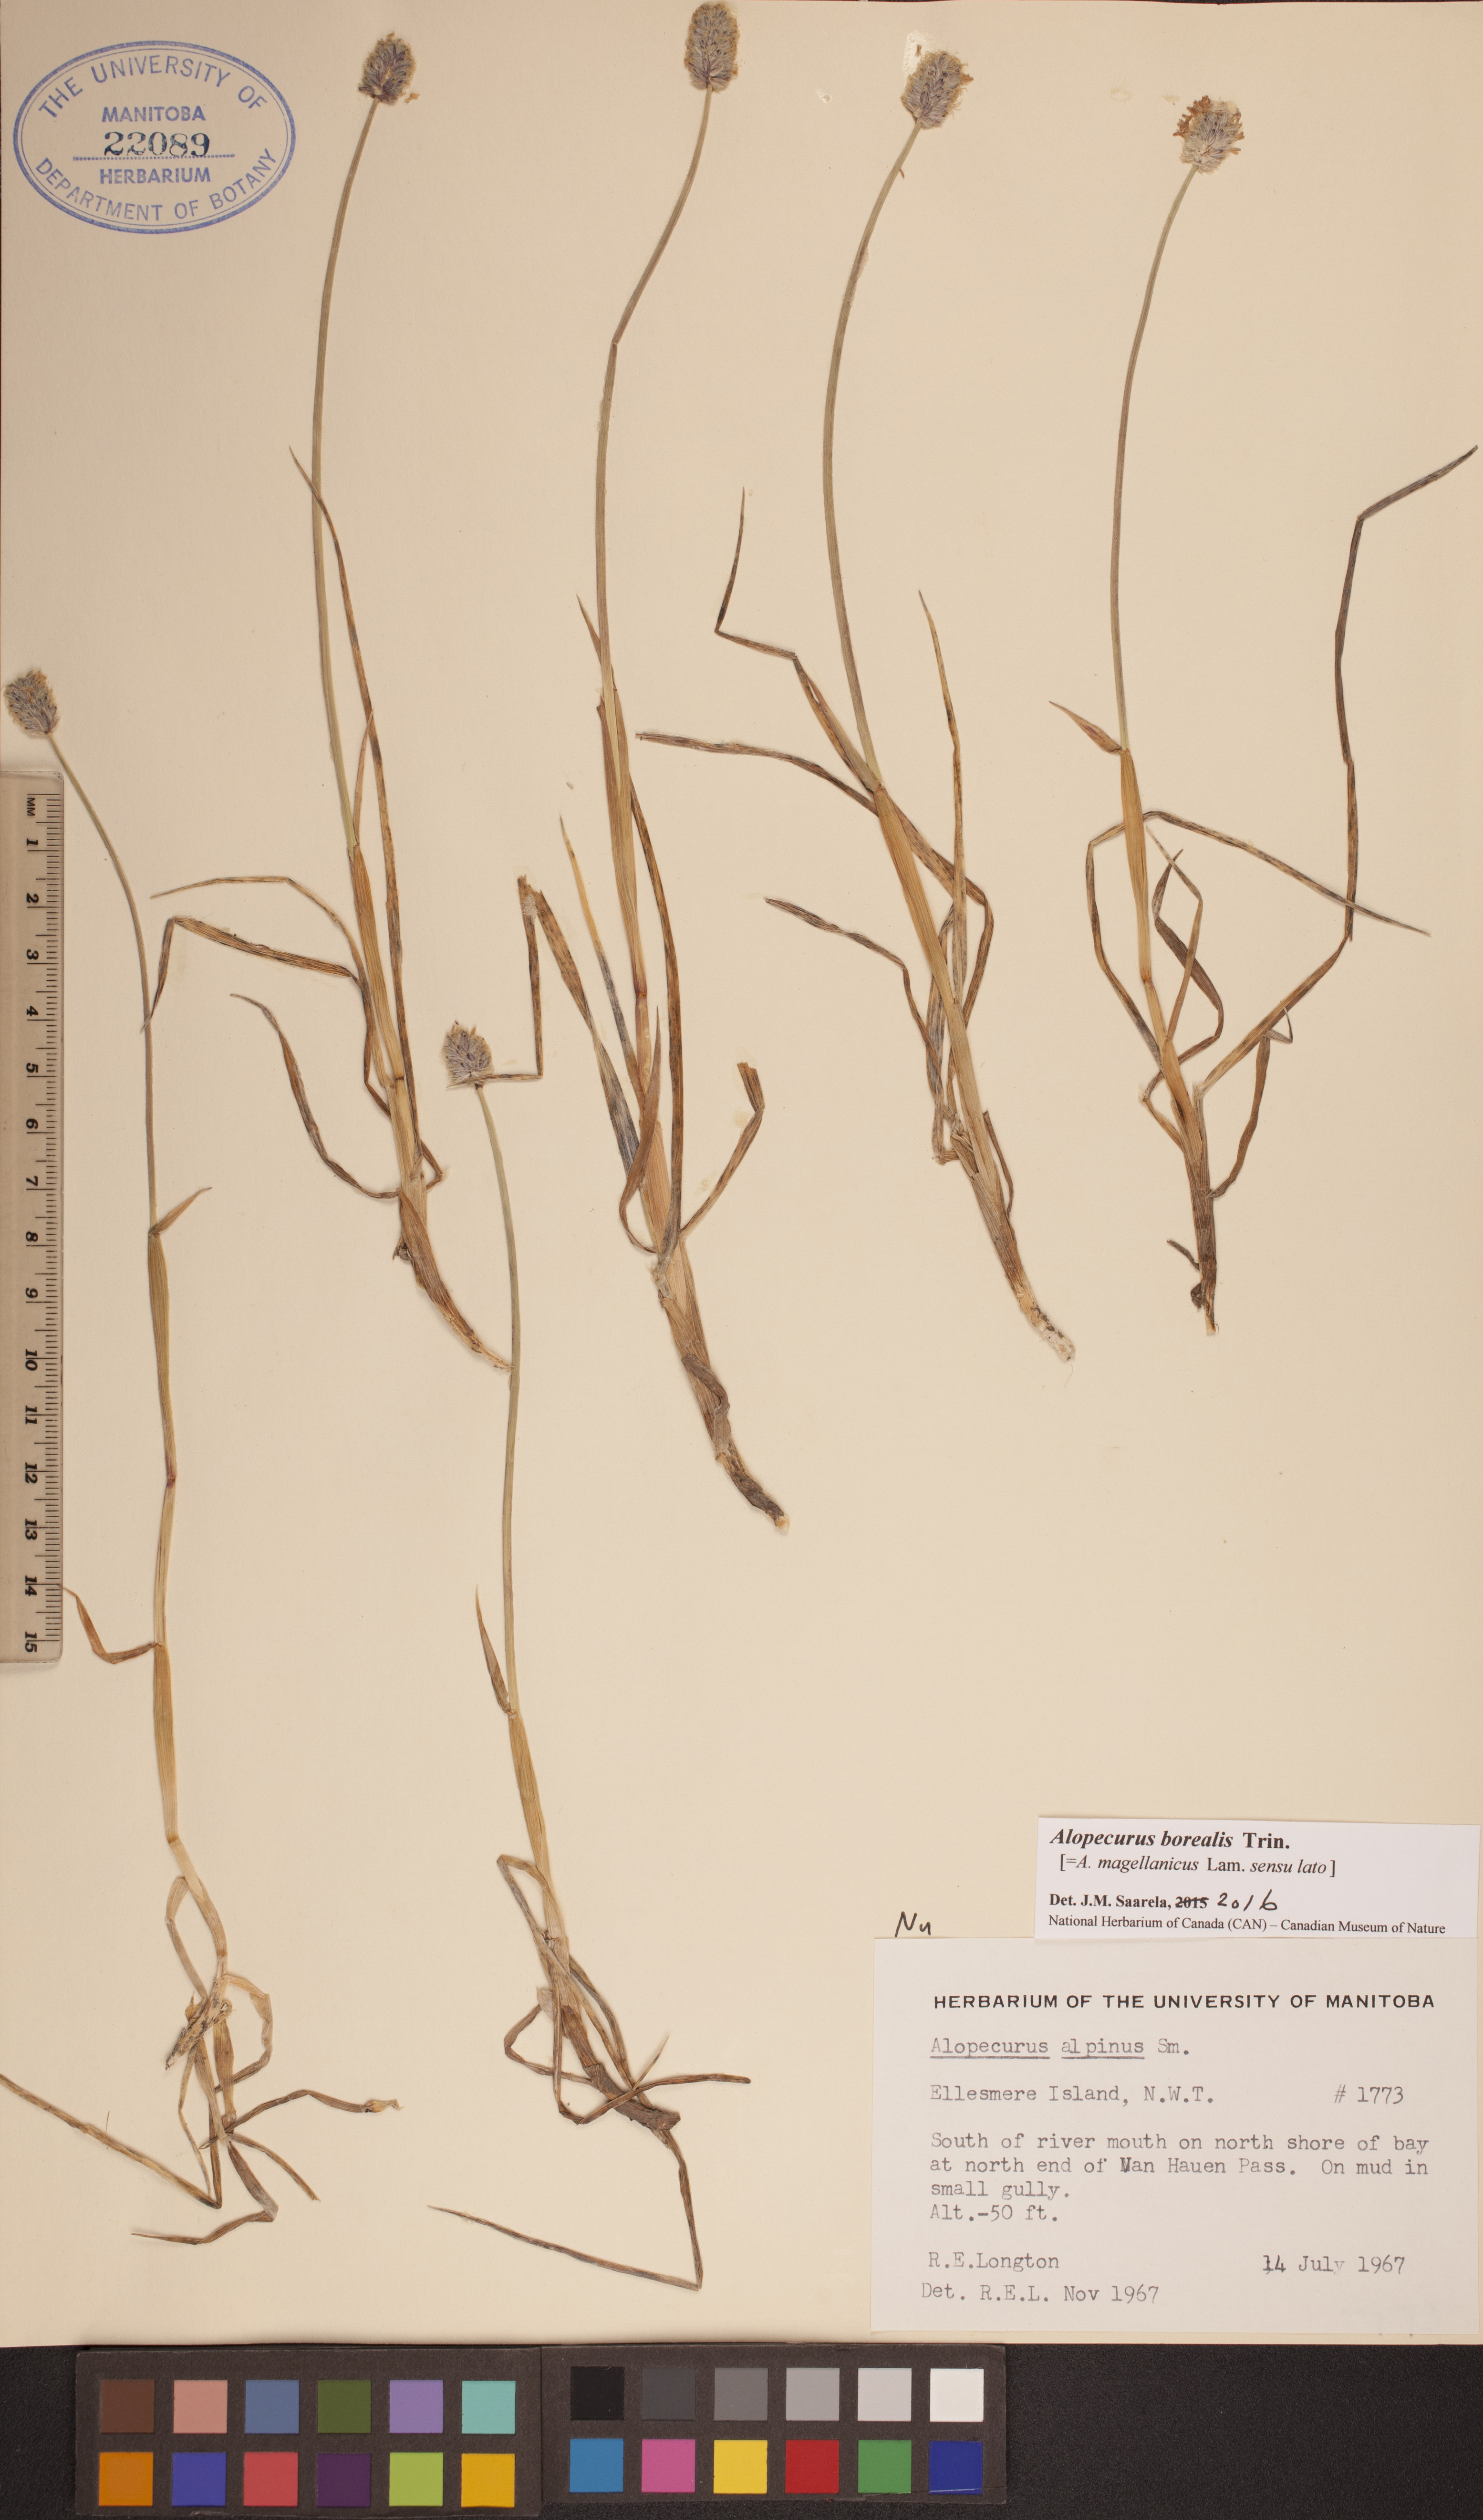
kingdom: Plantae
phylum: Tracheophyta
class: Liliopsida
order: Poales
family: Poaceae
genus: Alopecurus
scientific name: Alopecurus magellanicus
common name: Alpine foxtail
